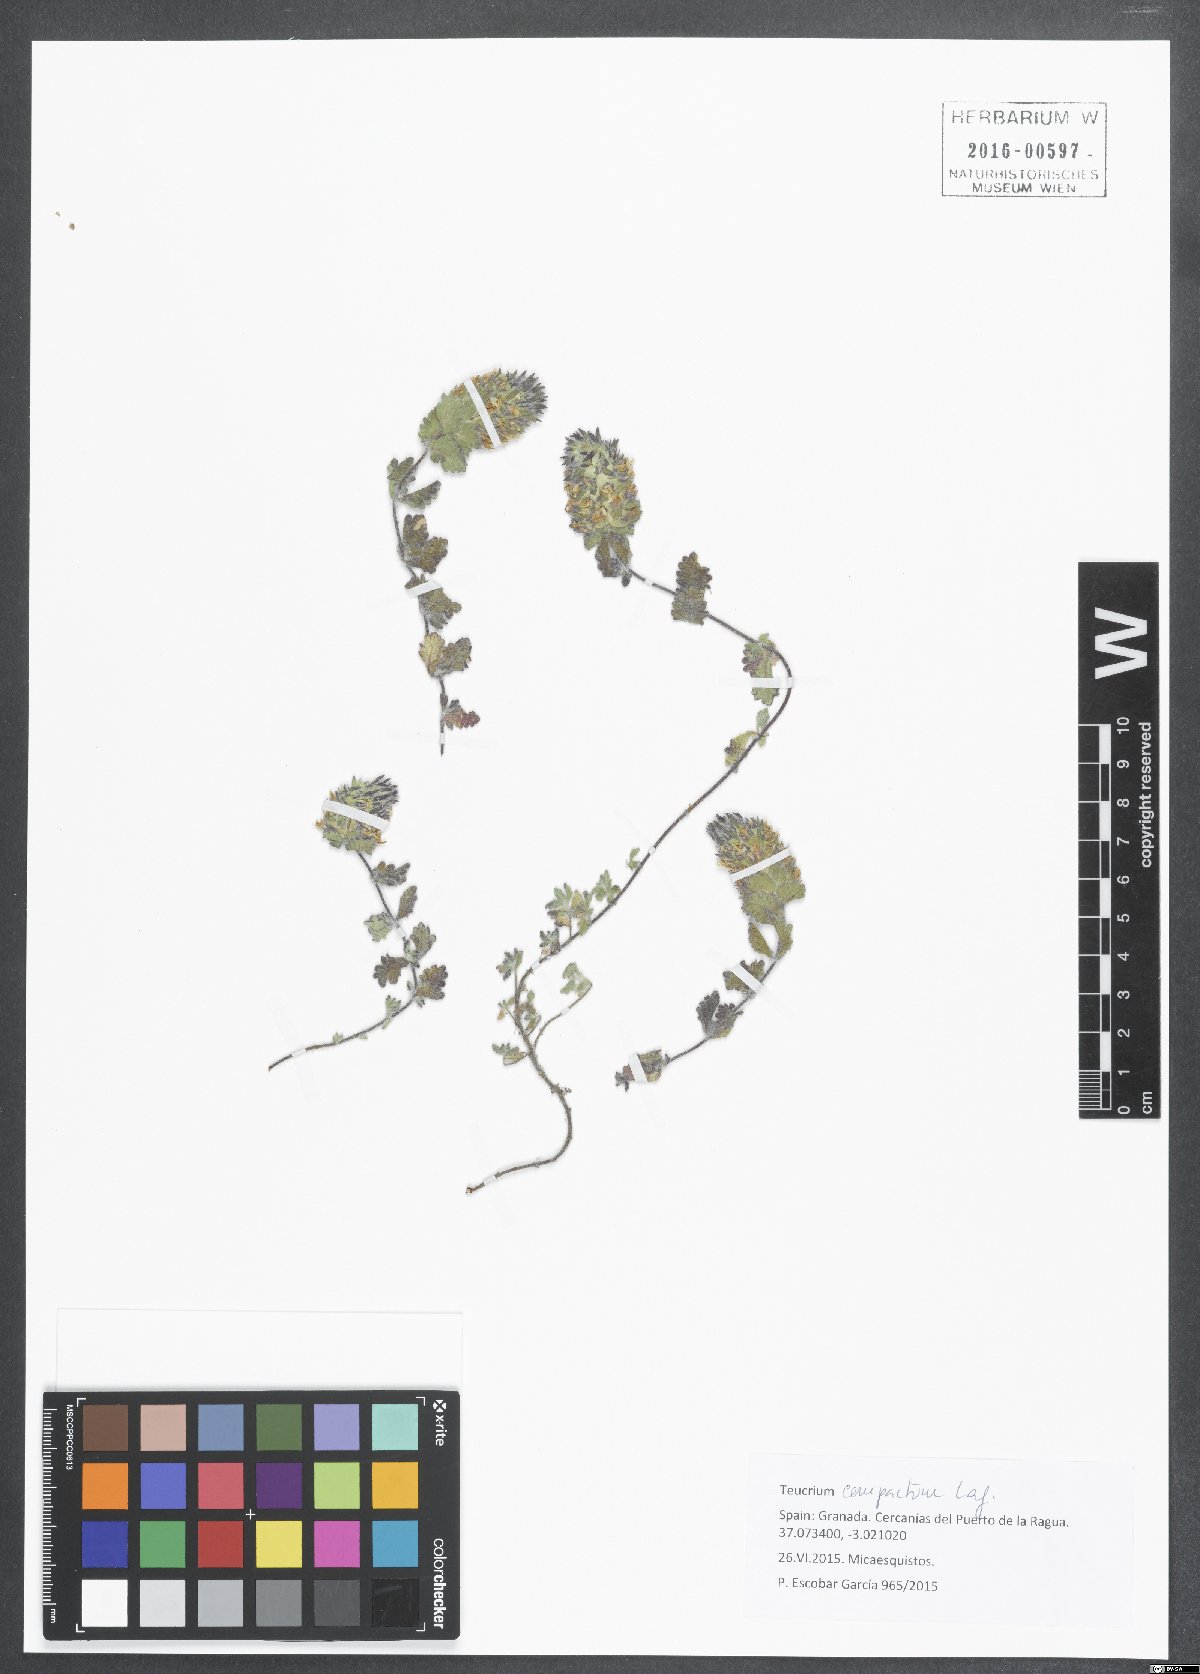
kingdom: Plantae
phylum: Tracheophyta
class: Magnoliopsida
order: Lamiales
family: Lamiaceae
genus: Teucrium
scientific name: Teucrium compactum
